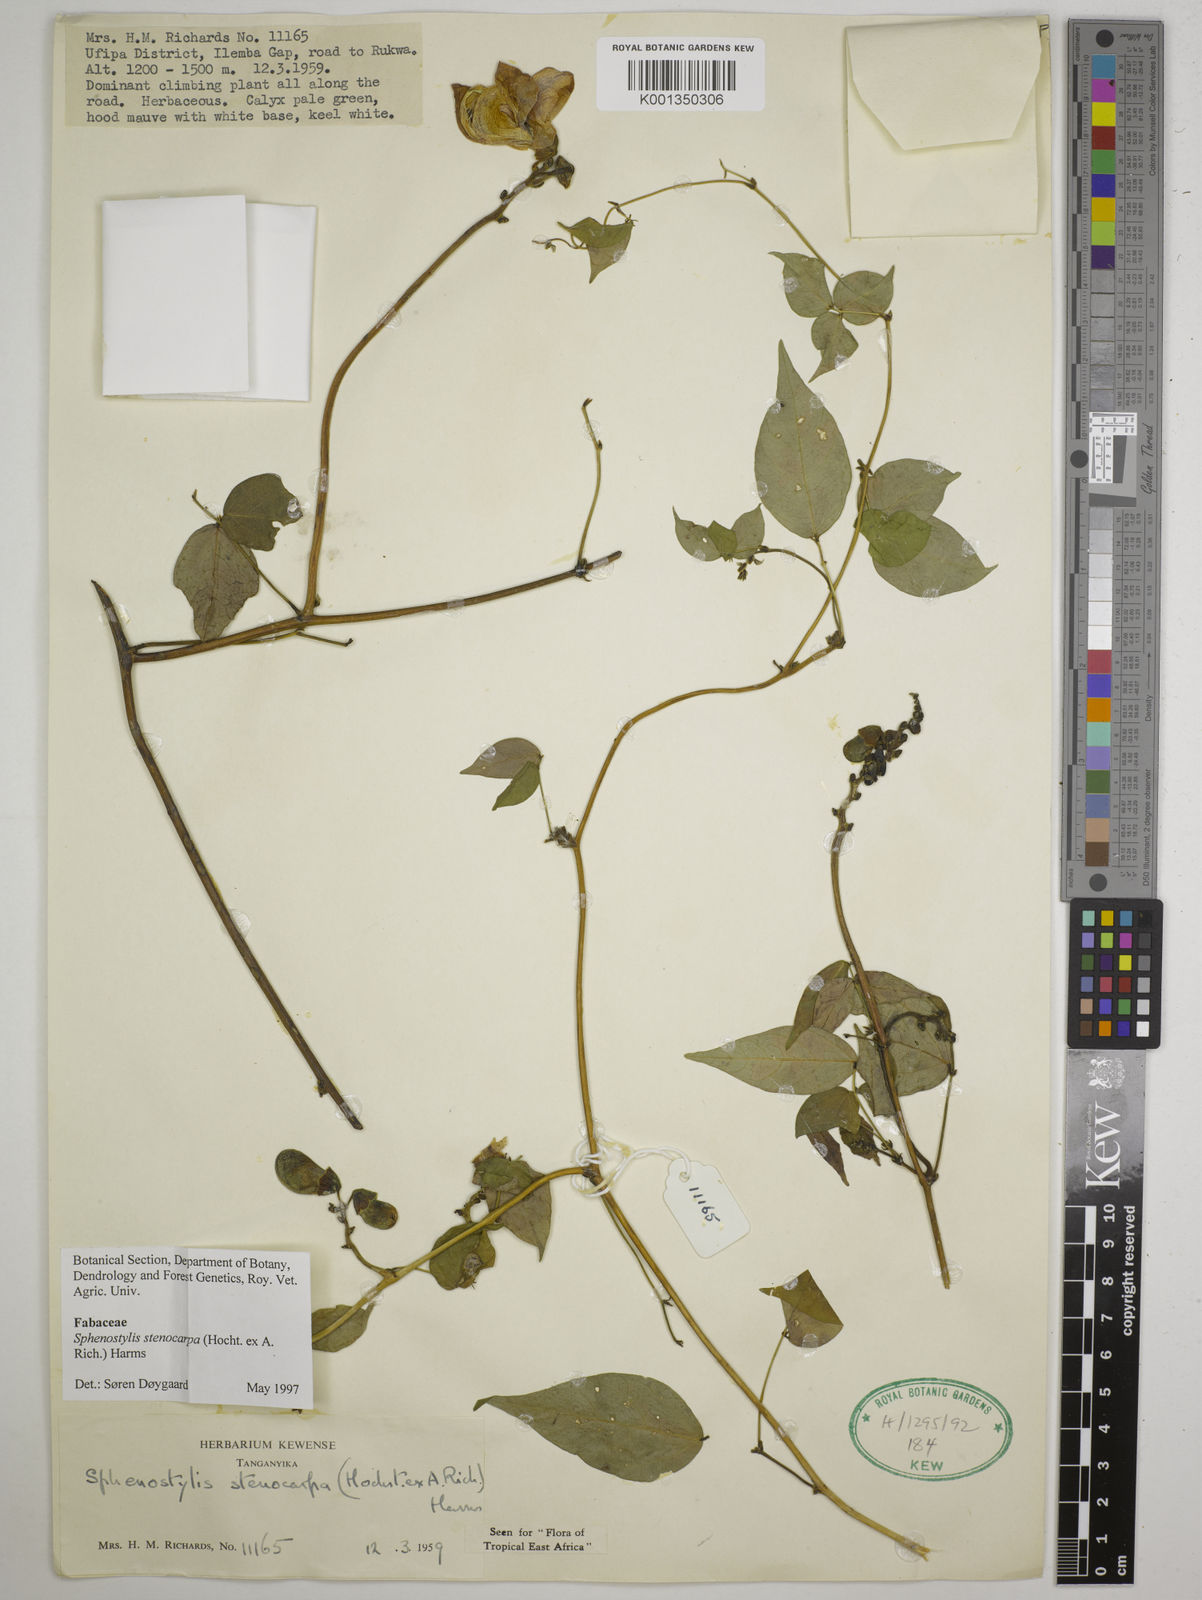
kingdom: Plantae
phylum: Tracheophyta
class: Magnoliopsida
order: Fabales
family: Fabaceae
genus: Sphenostylis
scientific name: Sphenostylis stenocarpa
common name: Yam-pea
